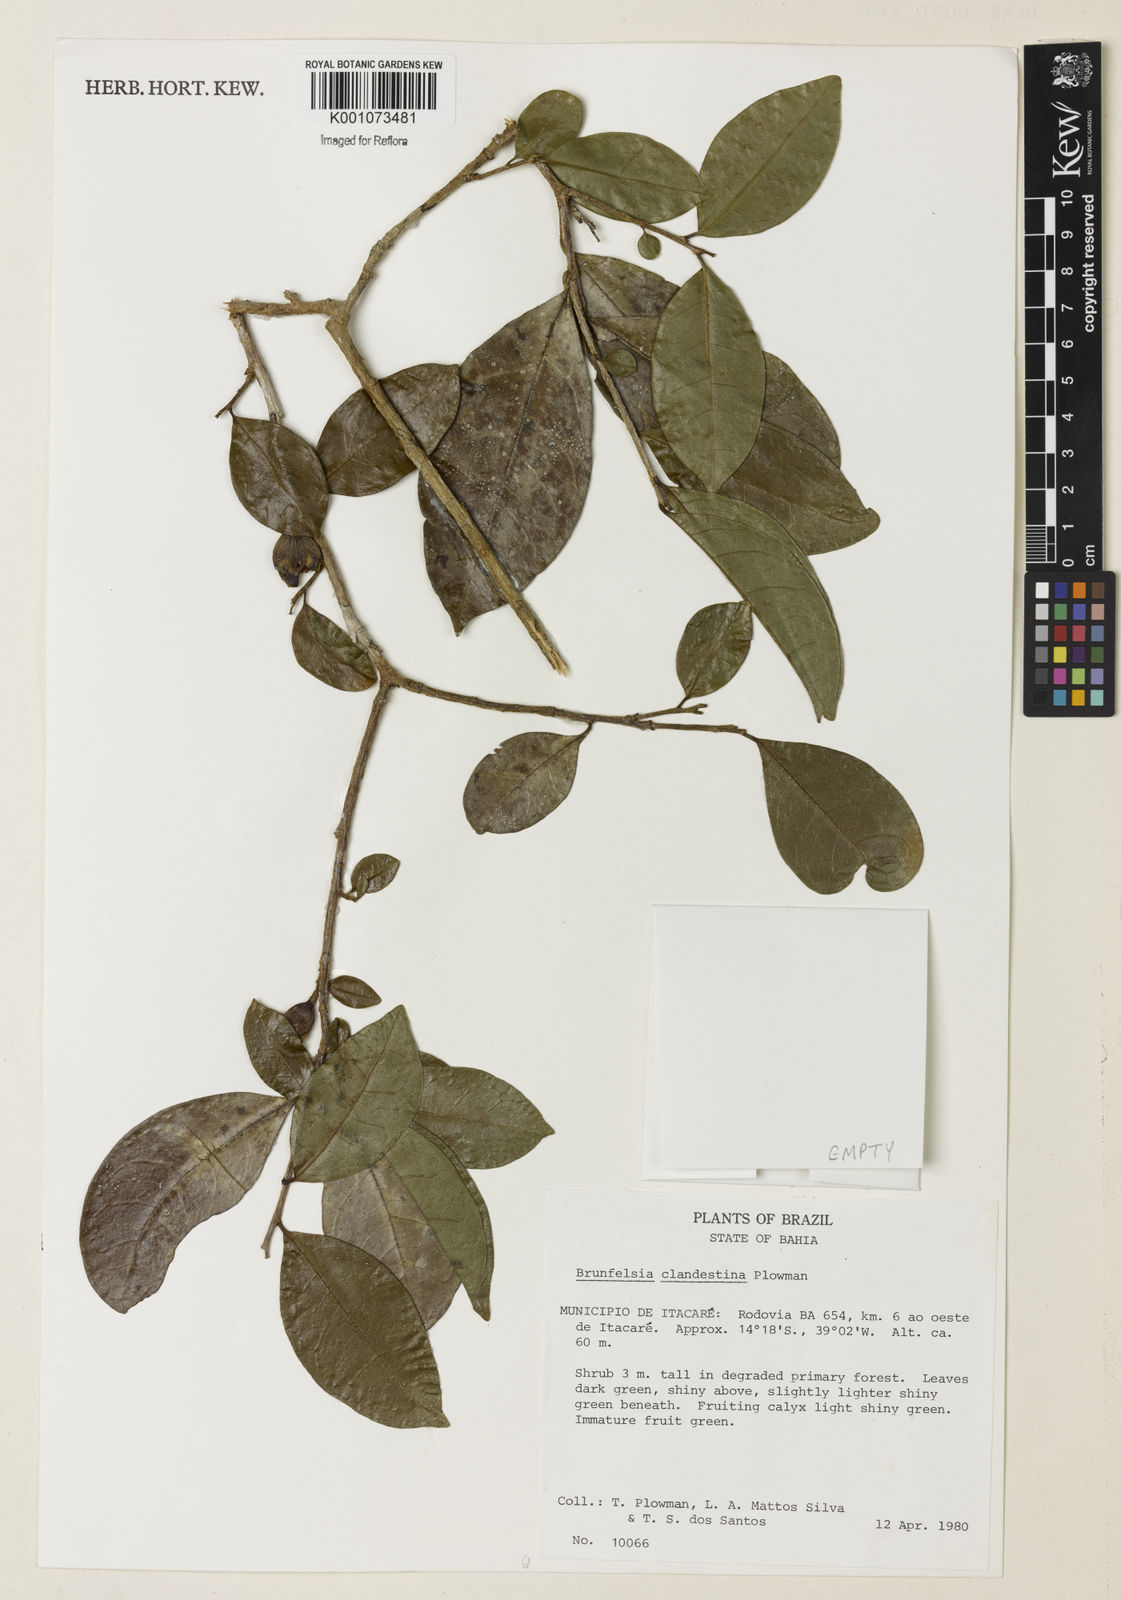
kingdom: Plantae
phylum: Tracheophyta
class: Magnoliopsida
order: Solanales
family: Solanaceae
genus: Brunfelsia
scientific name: Brunfelsia clandestina
